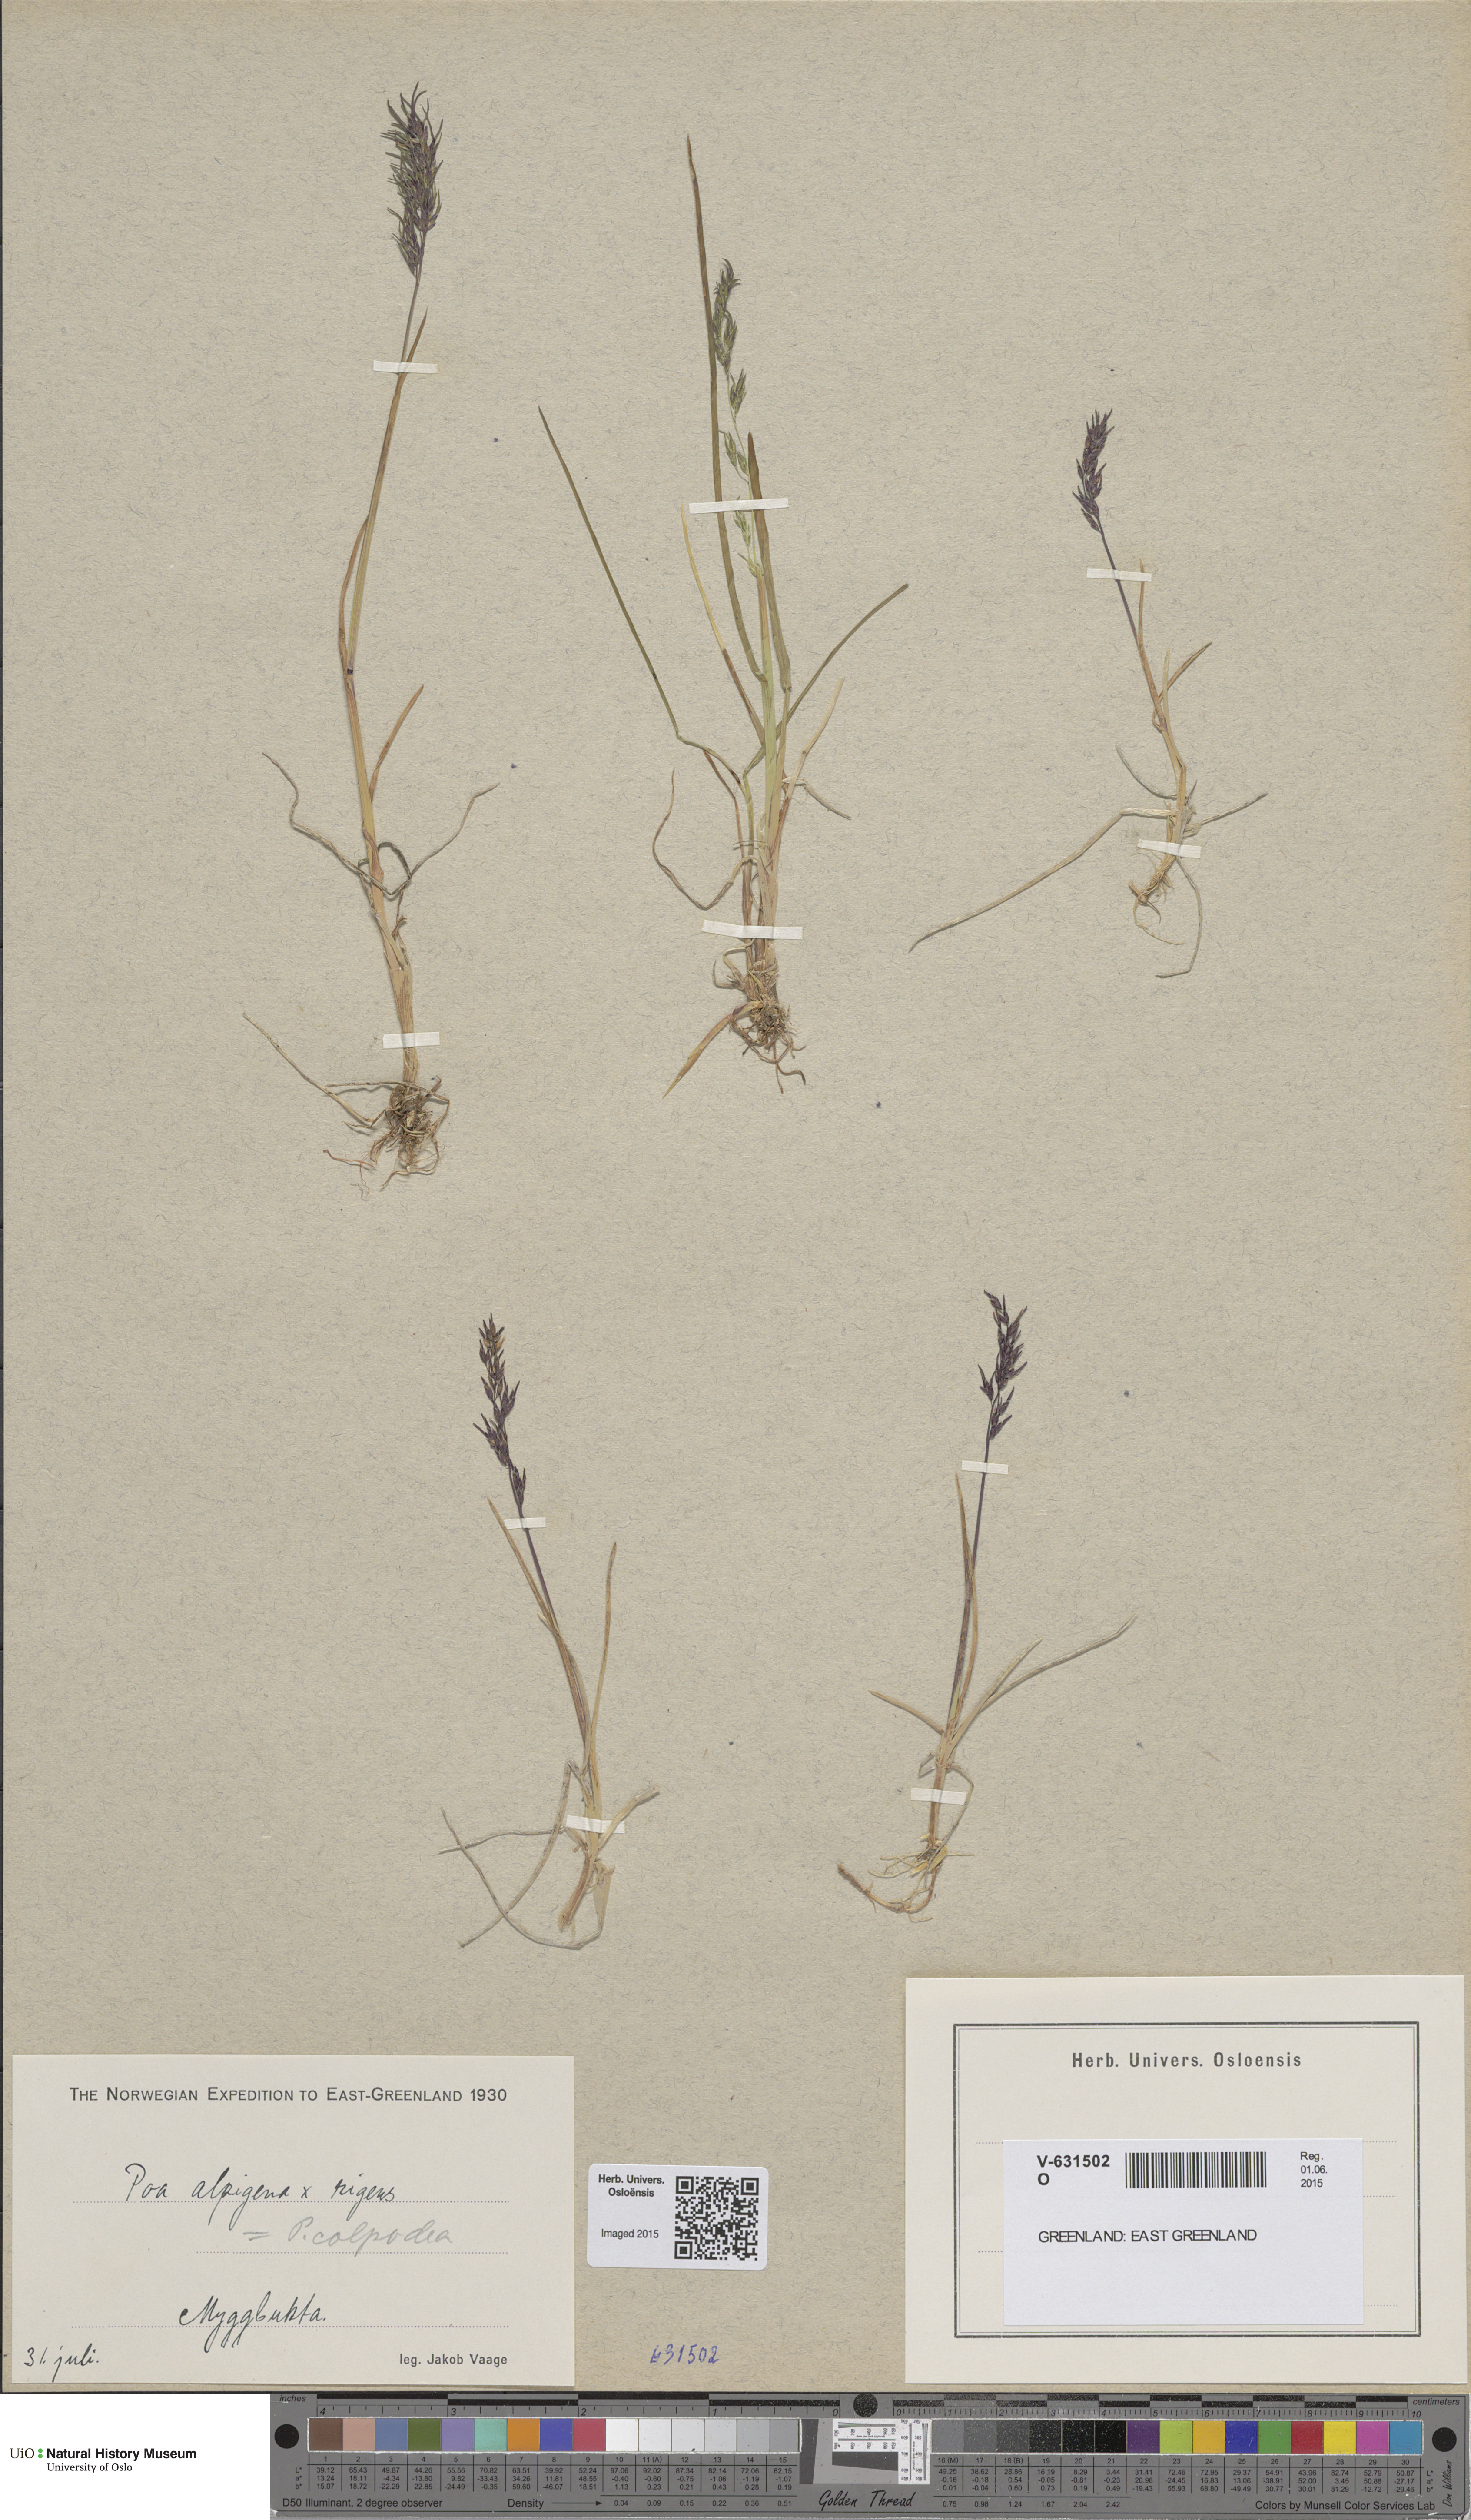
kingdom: Plantae
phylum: Tracheophyta
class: Liliopsida
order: Poales
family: Poaceae
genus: Poa
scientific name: Poa colpodea
